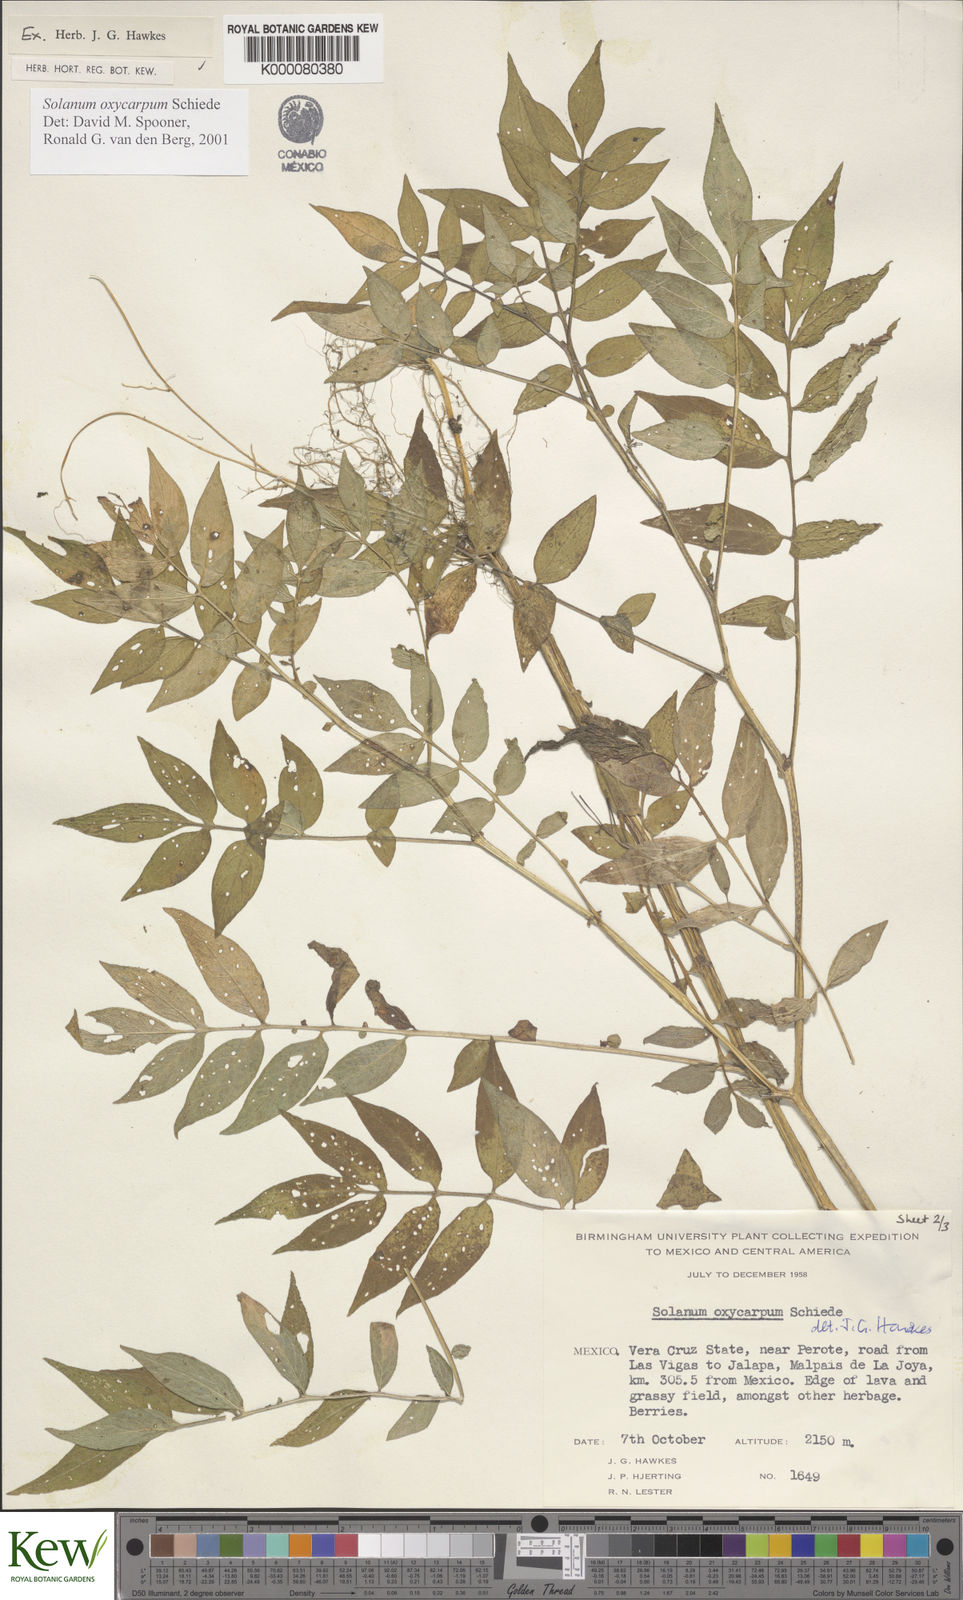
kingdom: Plantae
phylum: Tracheophyta
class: Magnoliopsida
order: Solanales
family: Solanaceae
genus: Solanum
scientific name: Solanum oxycarpum
